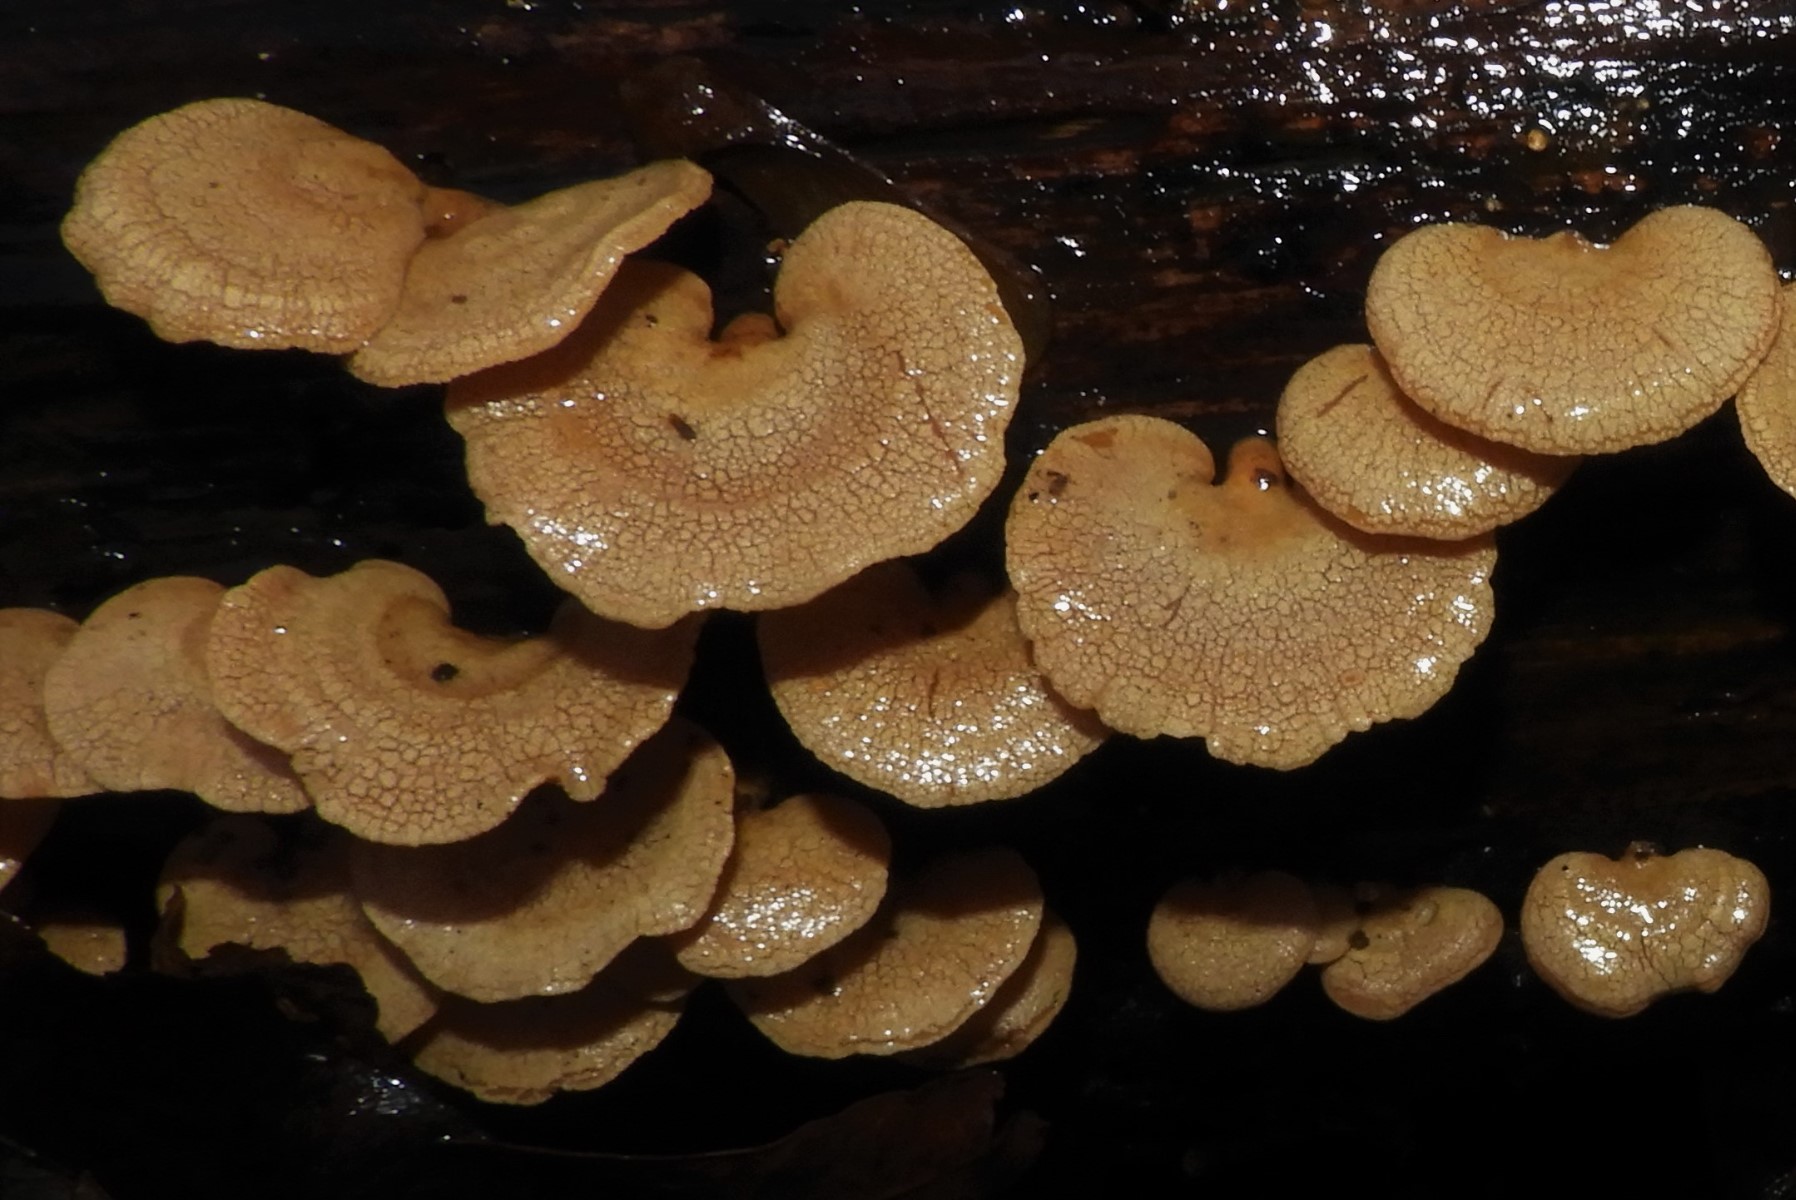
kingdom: Fungi
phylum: Basidiomycota
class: Agaricomycetes
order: Agaricales
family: Mycenaceae
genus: Panellus
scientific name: Panellus stipticus
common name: kliddet epaulethat
